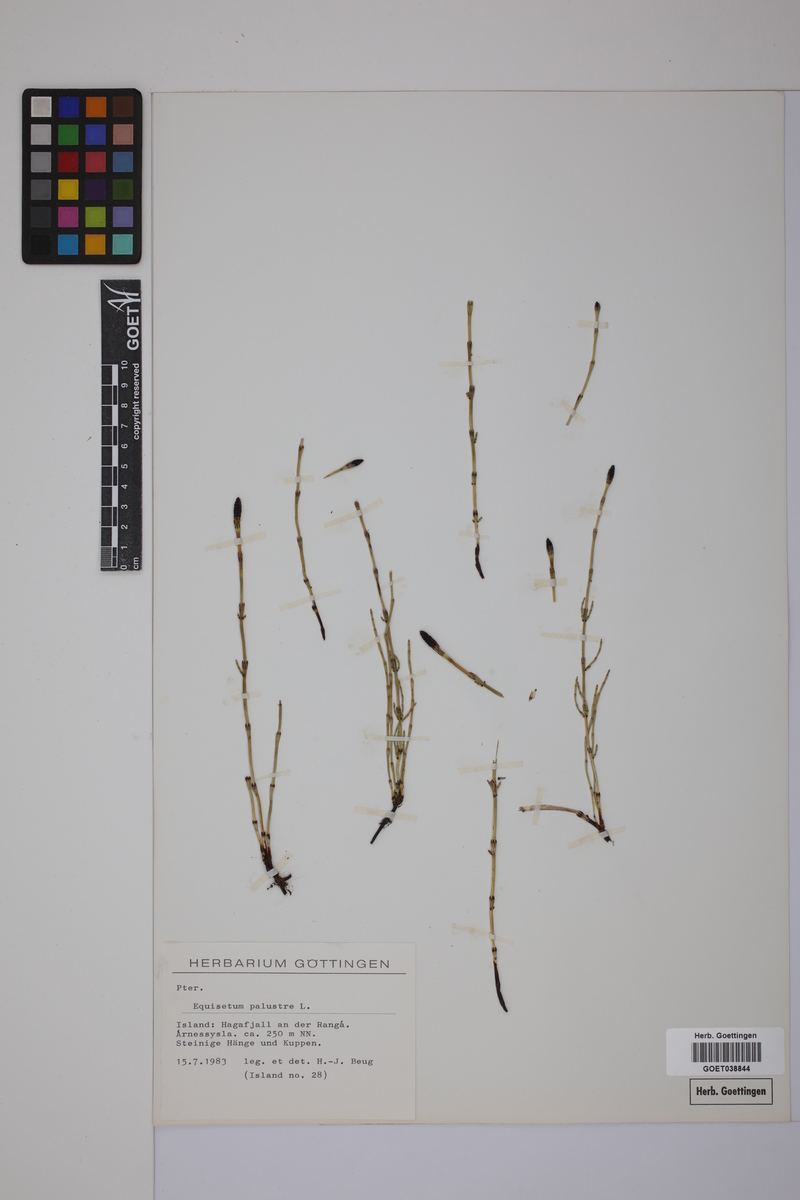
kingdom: Plantae
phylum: Tracheophyta
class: Polypodiopsida
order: Equisetales
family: Equisetaceae
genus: Equisetum
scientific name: Equisetum palustre
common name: Marsh horsetail
